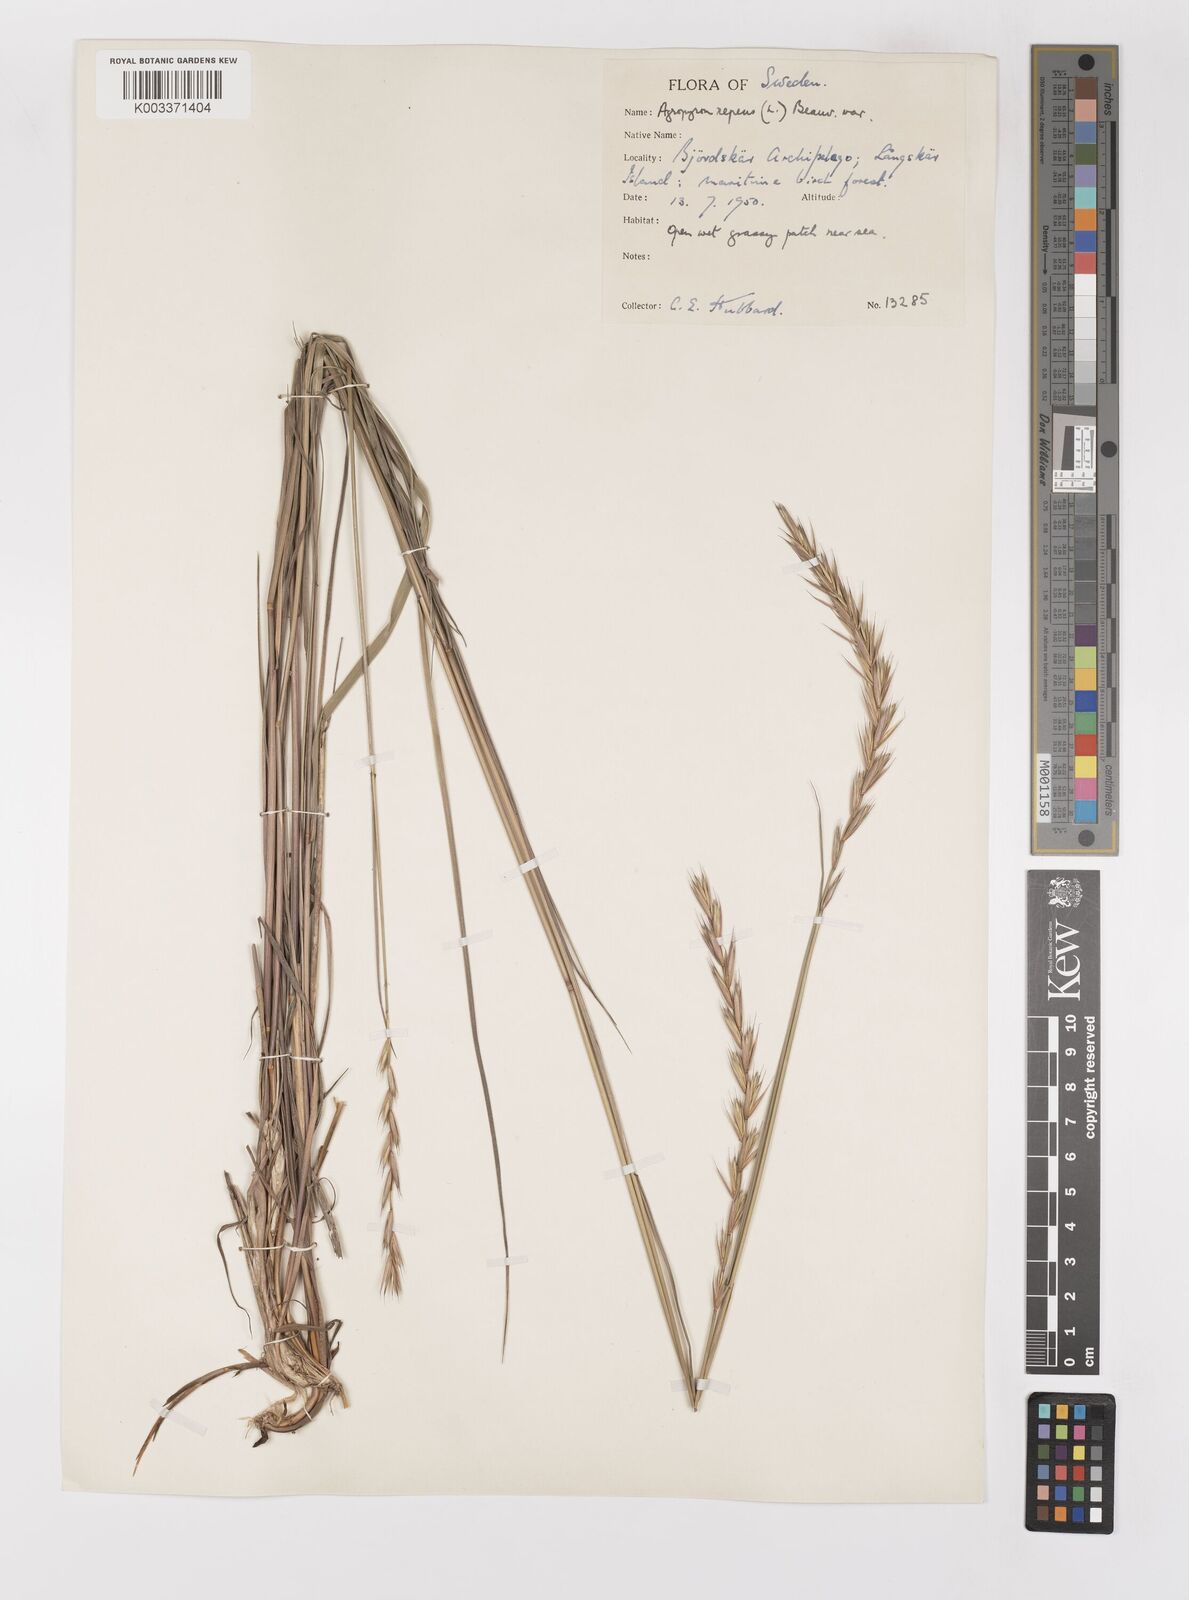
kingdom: Plantae
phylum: Tracheophyta
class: Liliopsida
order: Poales
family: Poaceae
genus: Elymus
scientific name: Elymus repens
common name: Quackgrass
